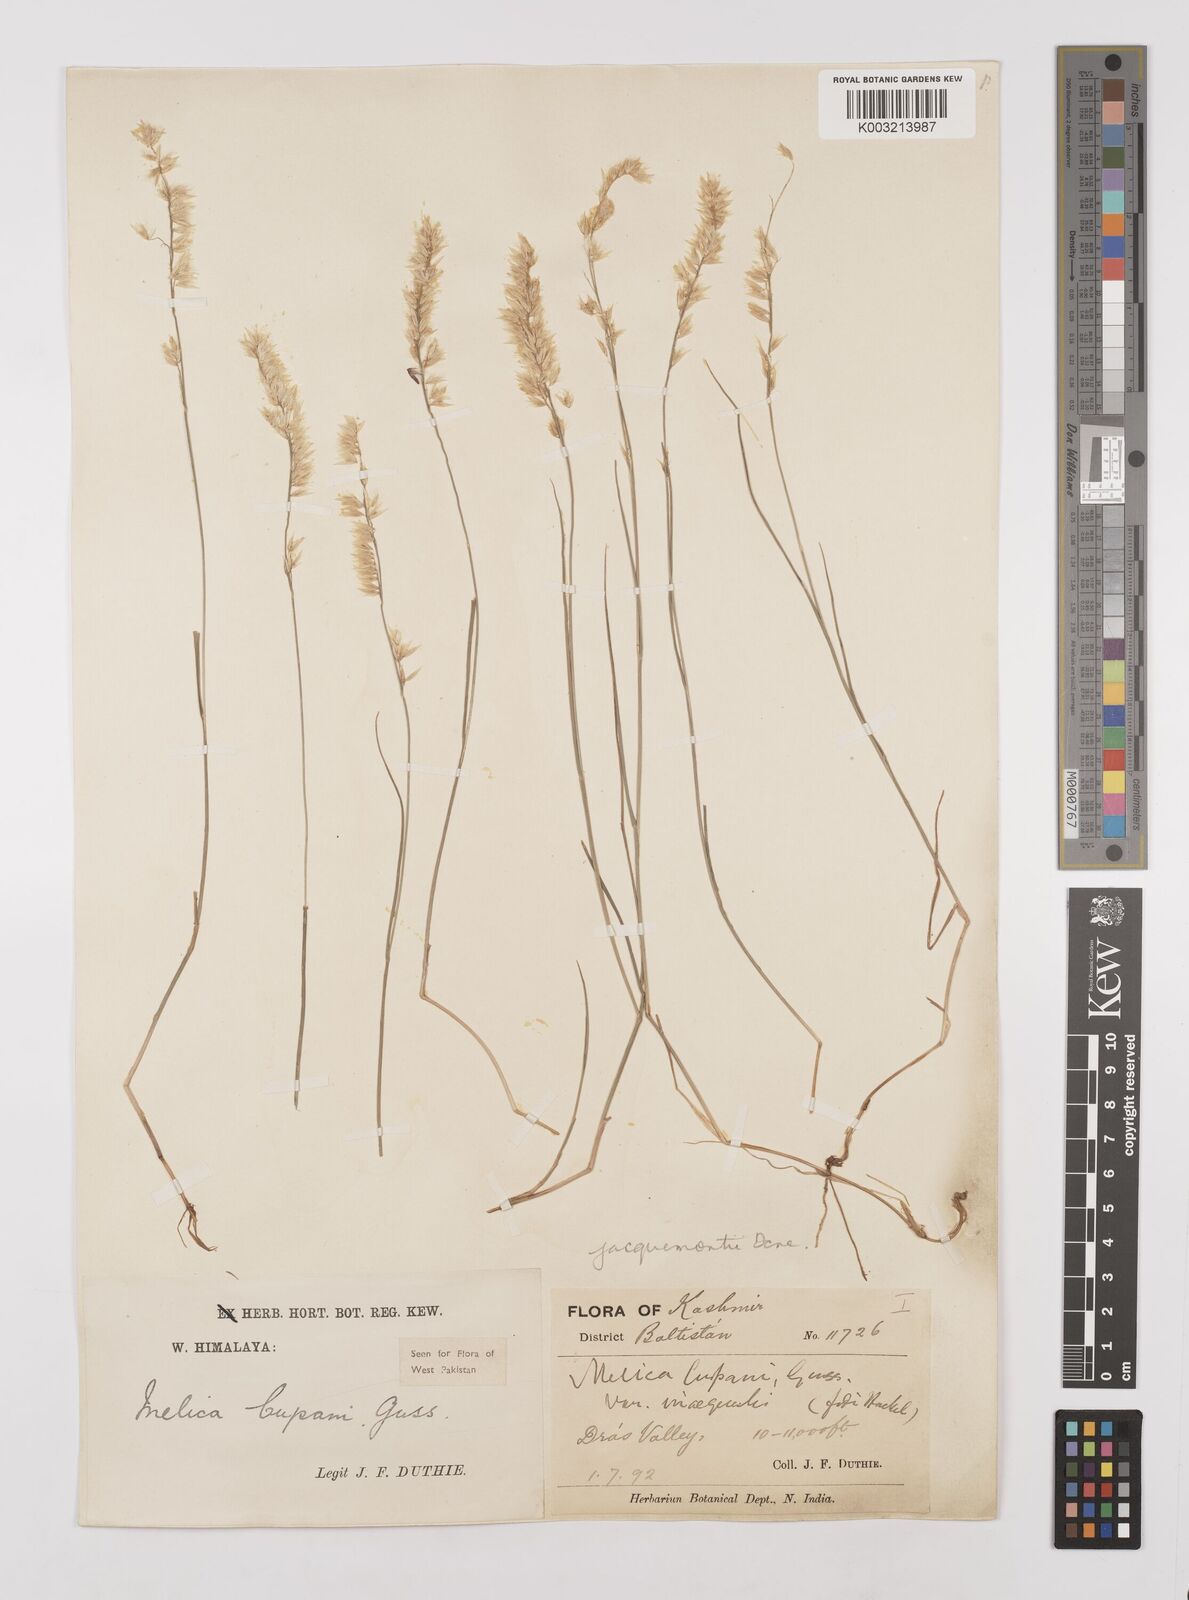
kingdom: Plantae
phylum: Tracheophyta
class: Liliopsida
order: Poales
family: Poaceae
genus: Melica
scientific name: Melica persica
